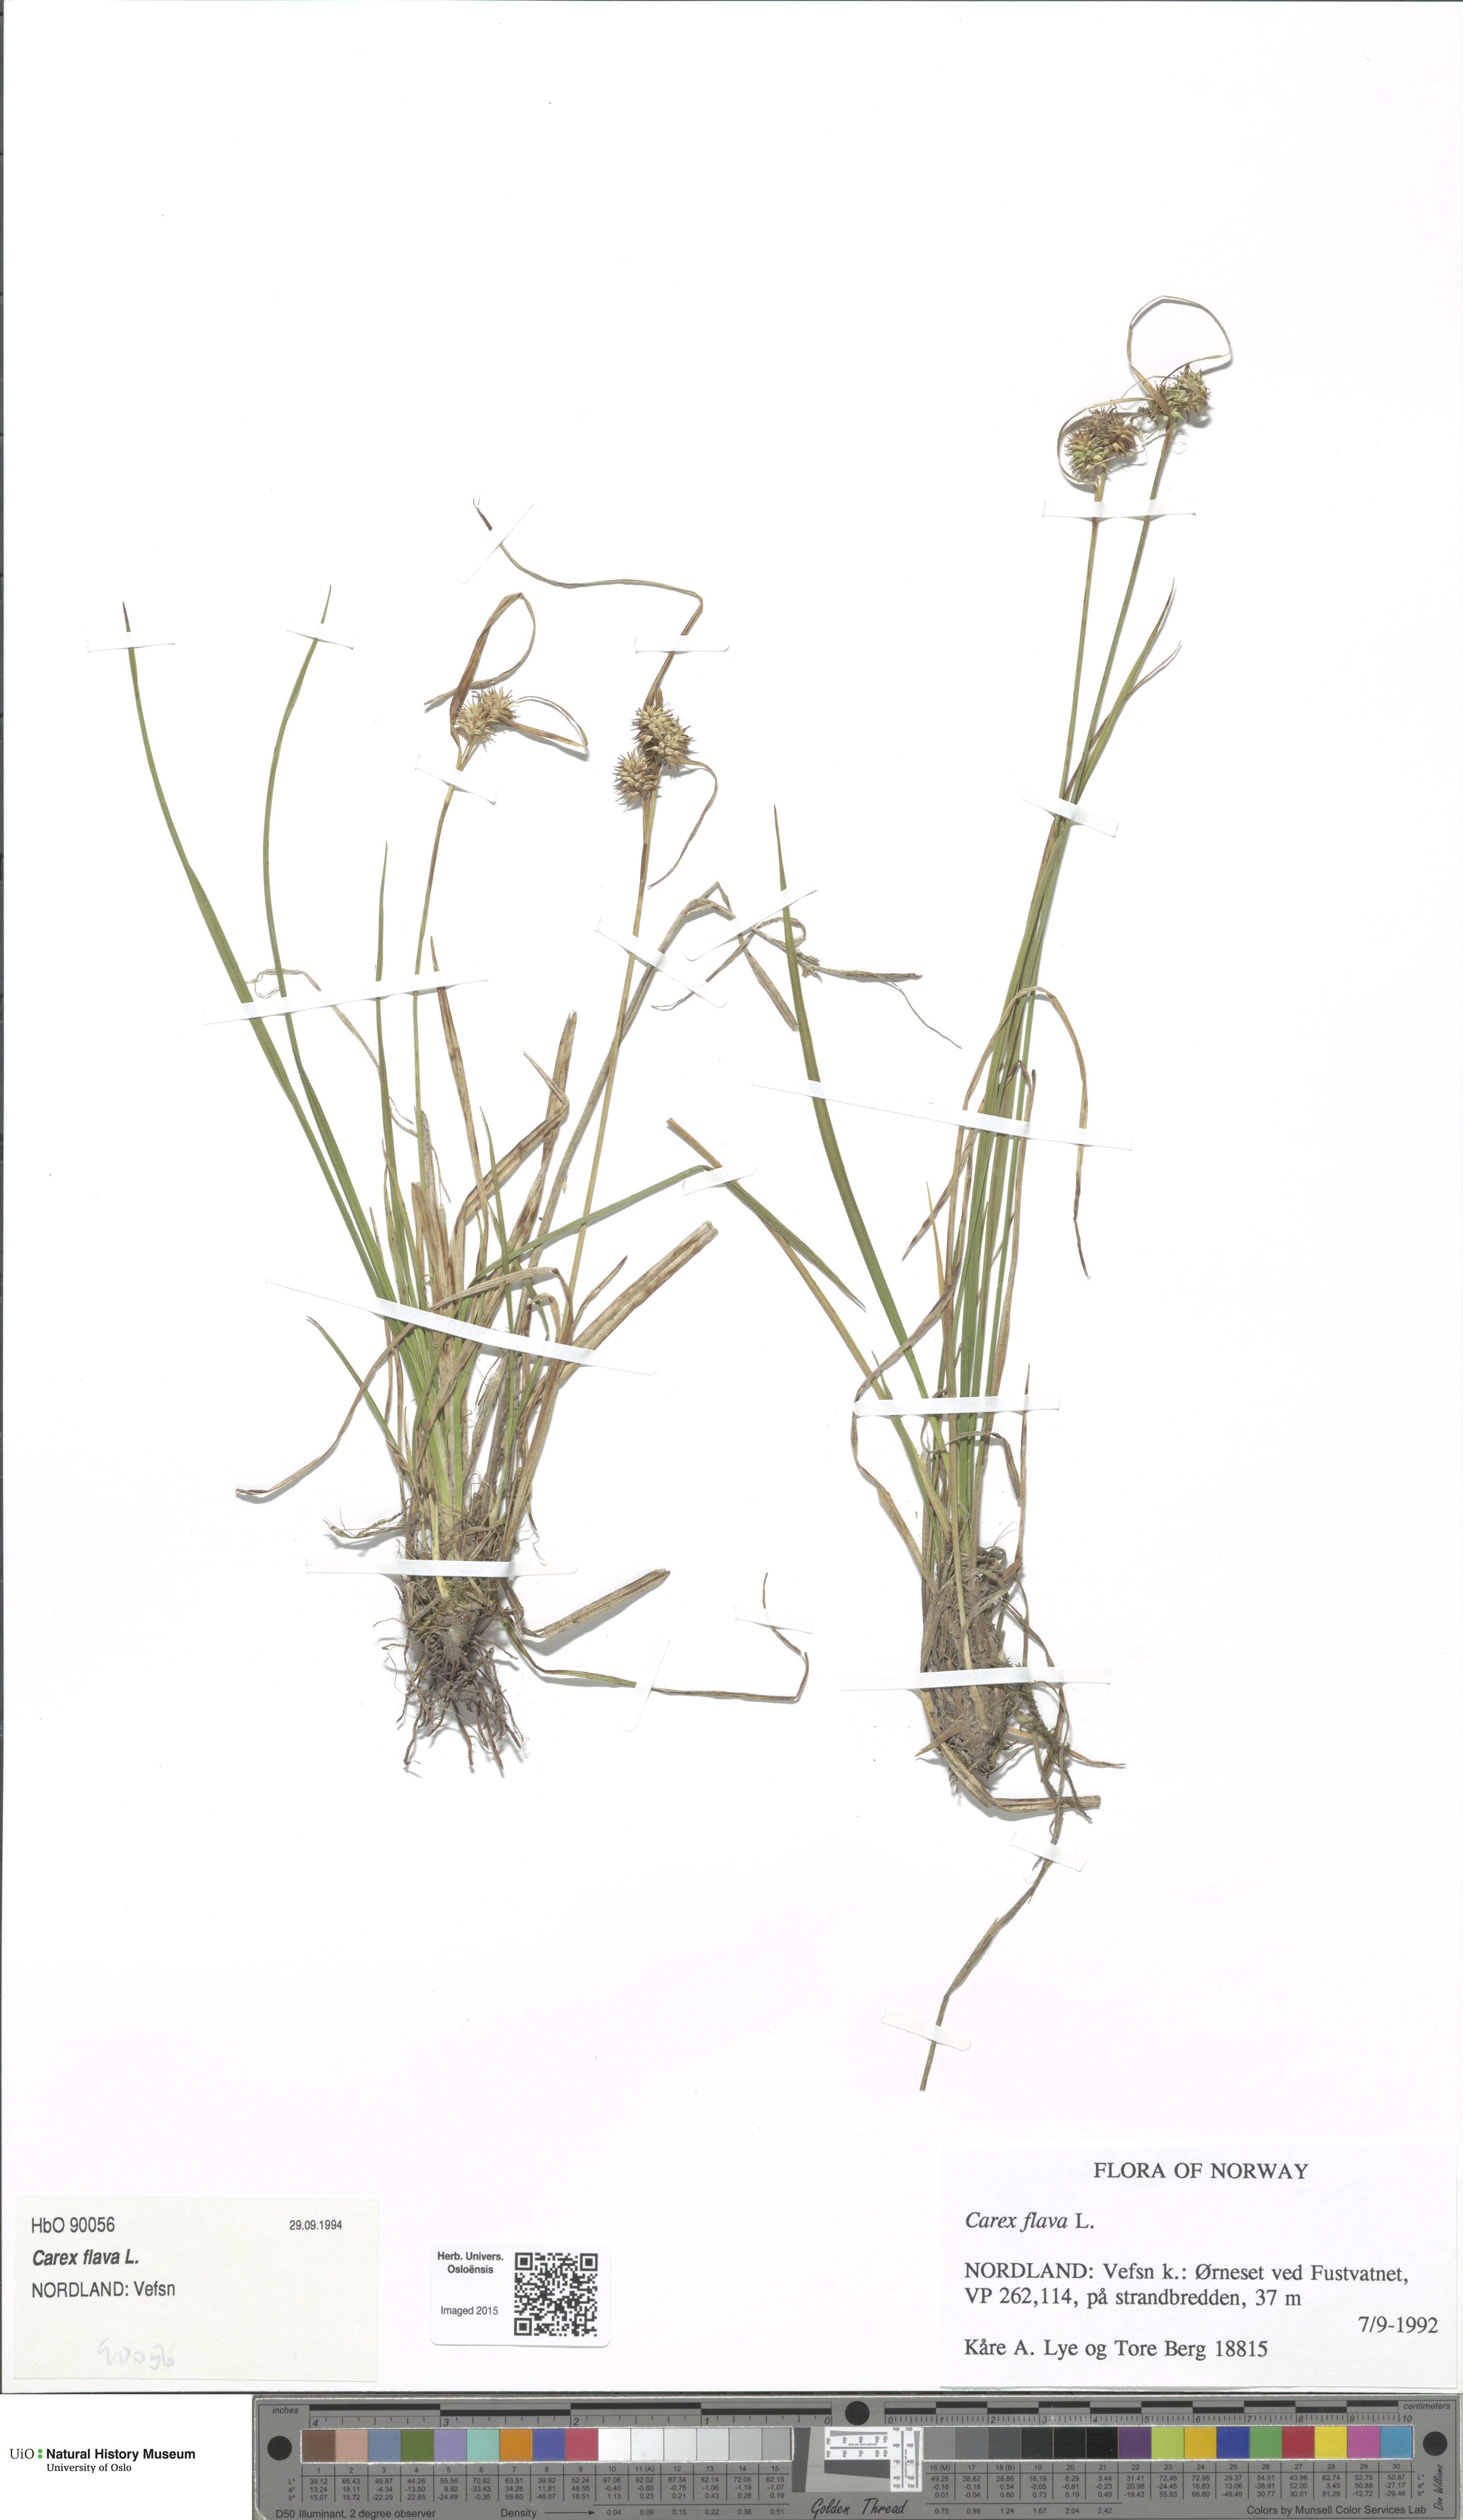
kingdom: Plantae
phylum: Tracheophyta
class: Liliopsida
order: Poales
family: Cyperaceae
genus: Carex
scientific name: Carex flava
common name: Large yellow-sedge
